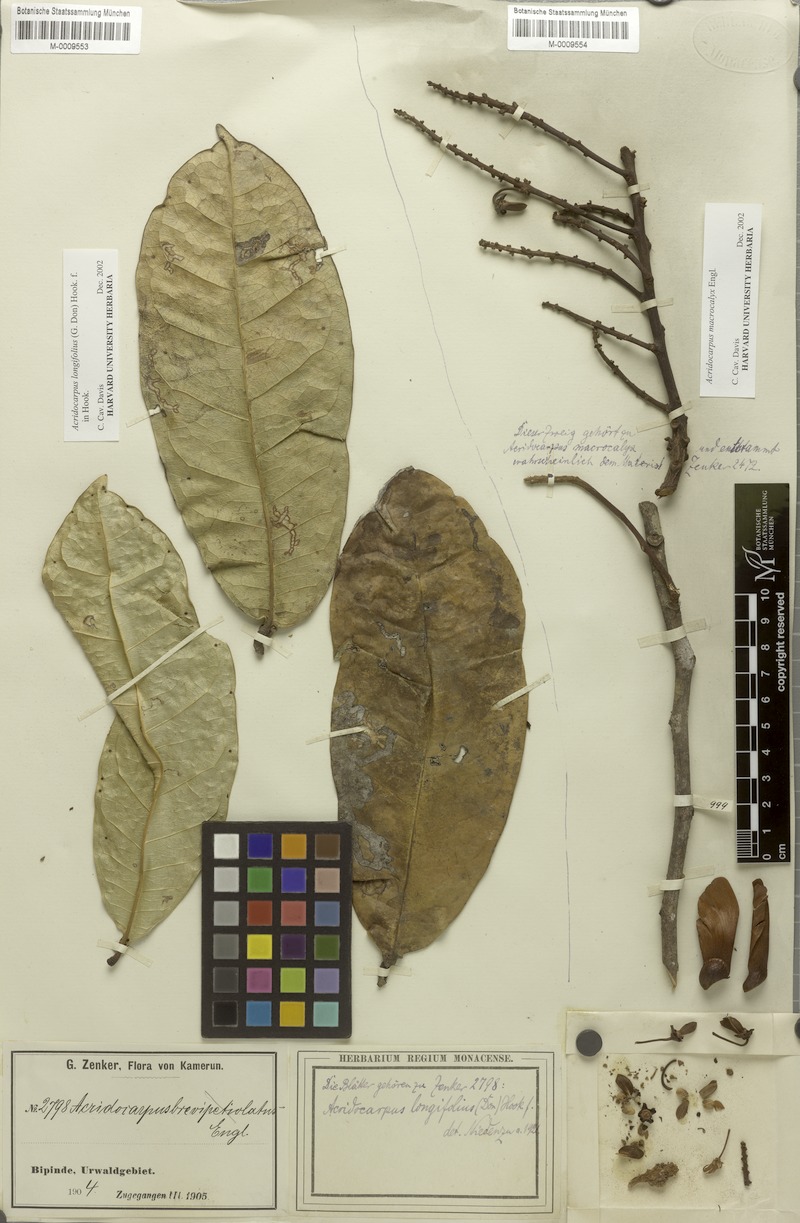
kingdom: Plantae
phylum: Tracheophyta
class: Magnoliopsida
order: Malpighiales
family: Malpighiaceae
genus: Acridocarpus
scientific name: Acridocarpus macrocalyx
